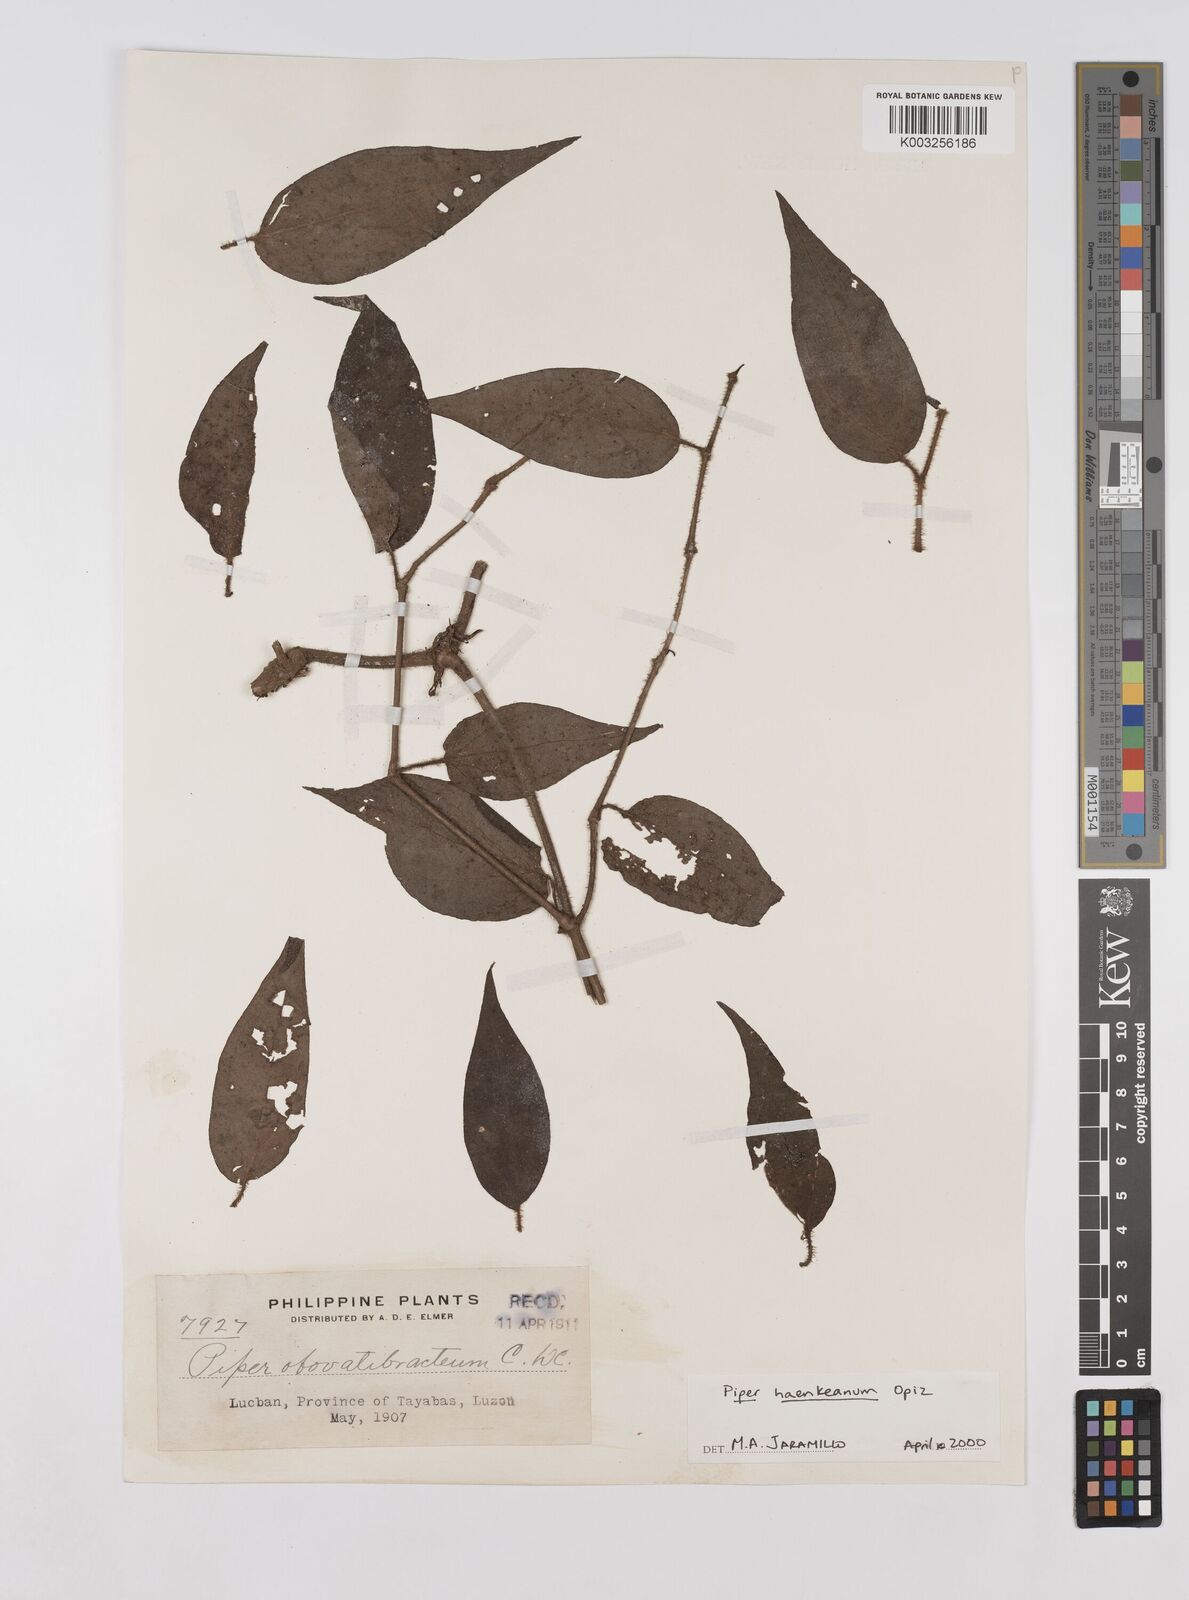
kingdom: Plantae
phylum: Tracheophyta
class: Magnoliopsida
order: Piperales
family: Piperaceae
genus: Piper
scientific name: Piper lanatum
